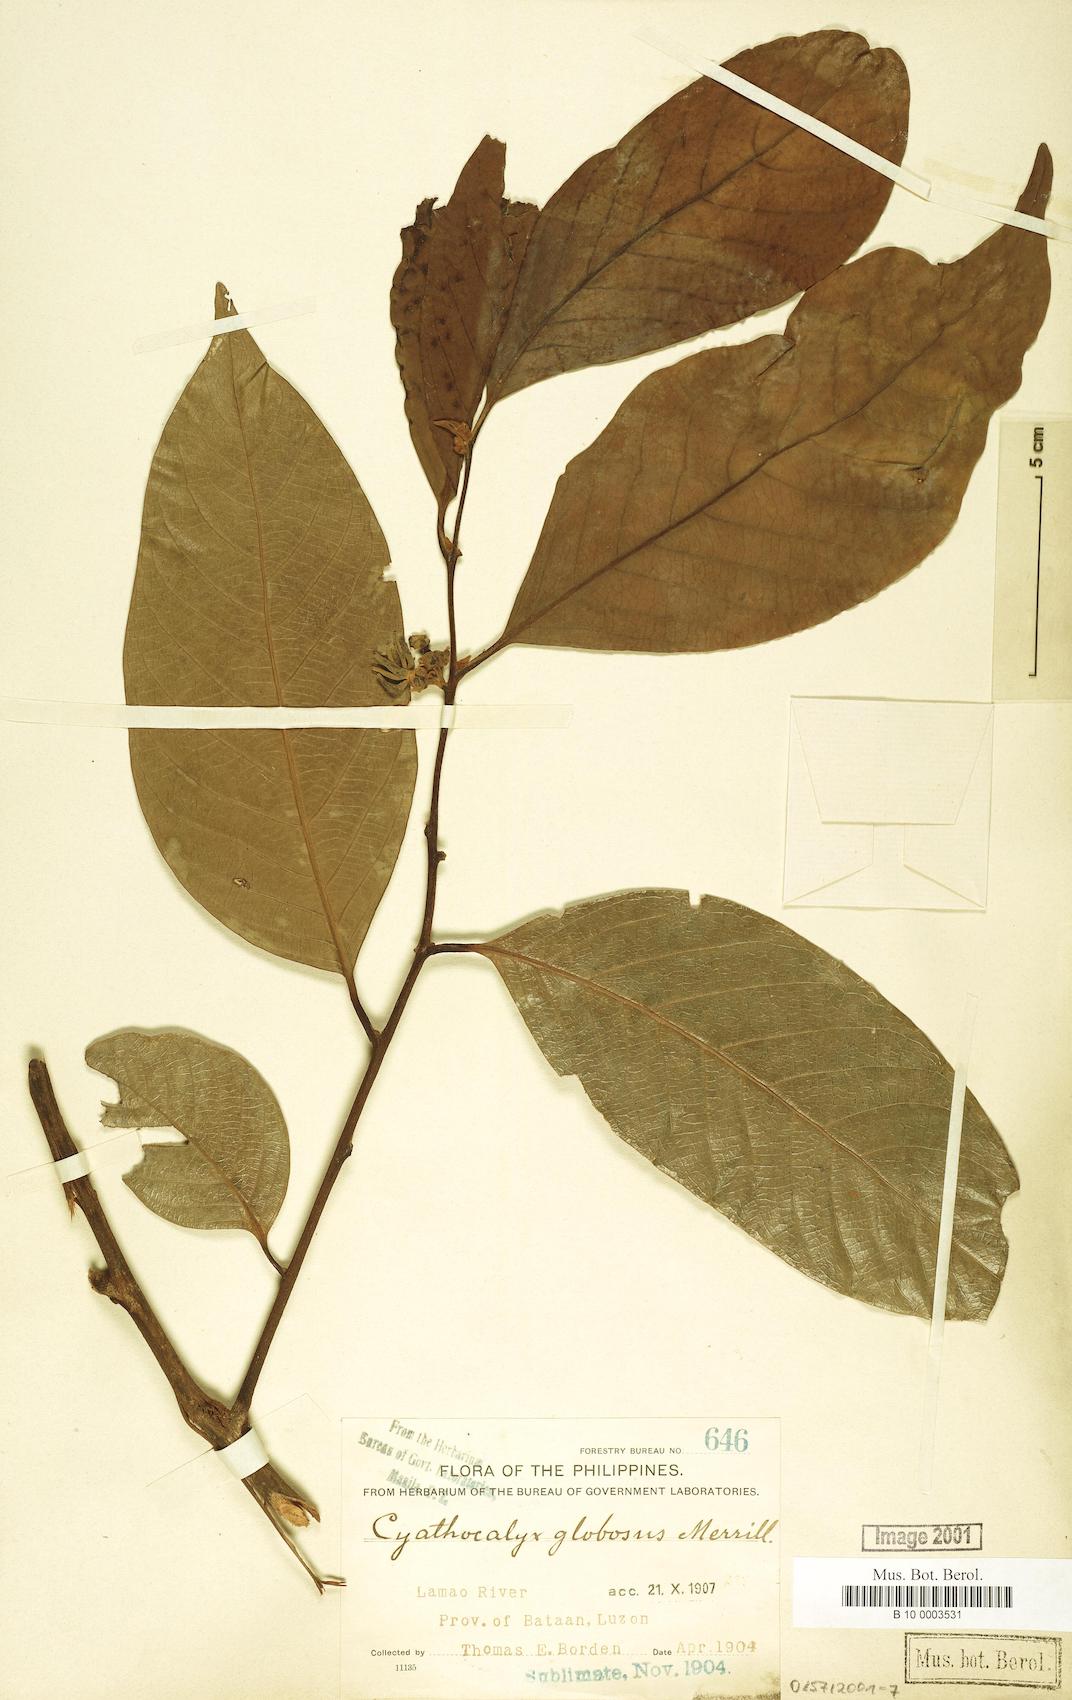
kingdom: Plantae
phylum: Tracheophyta
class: Magnoliopsida
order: Magnoliales
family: Annonaceae
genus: Cyathocalyx
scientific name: Cyathocalyx globosus
